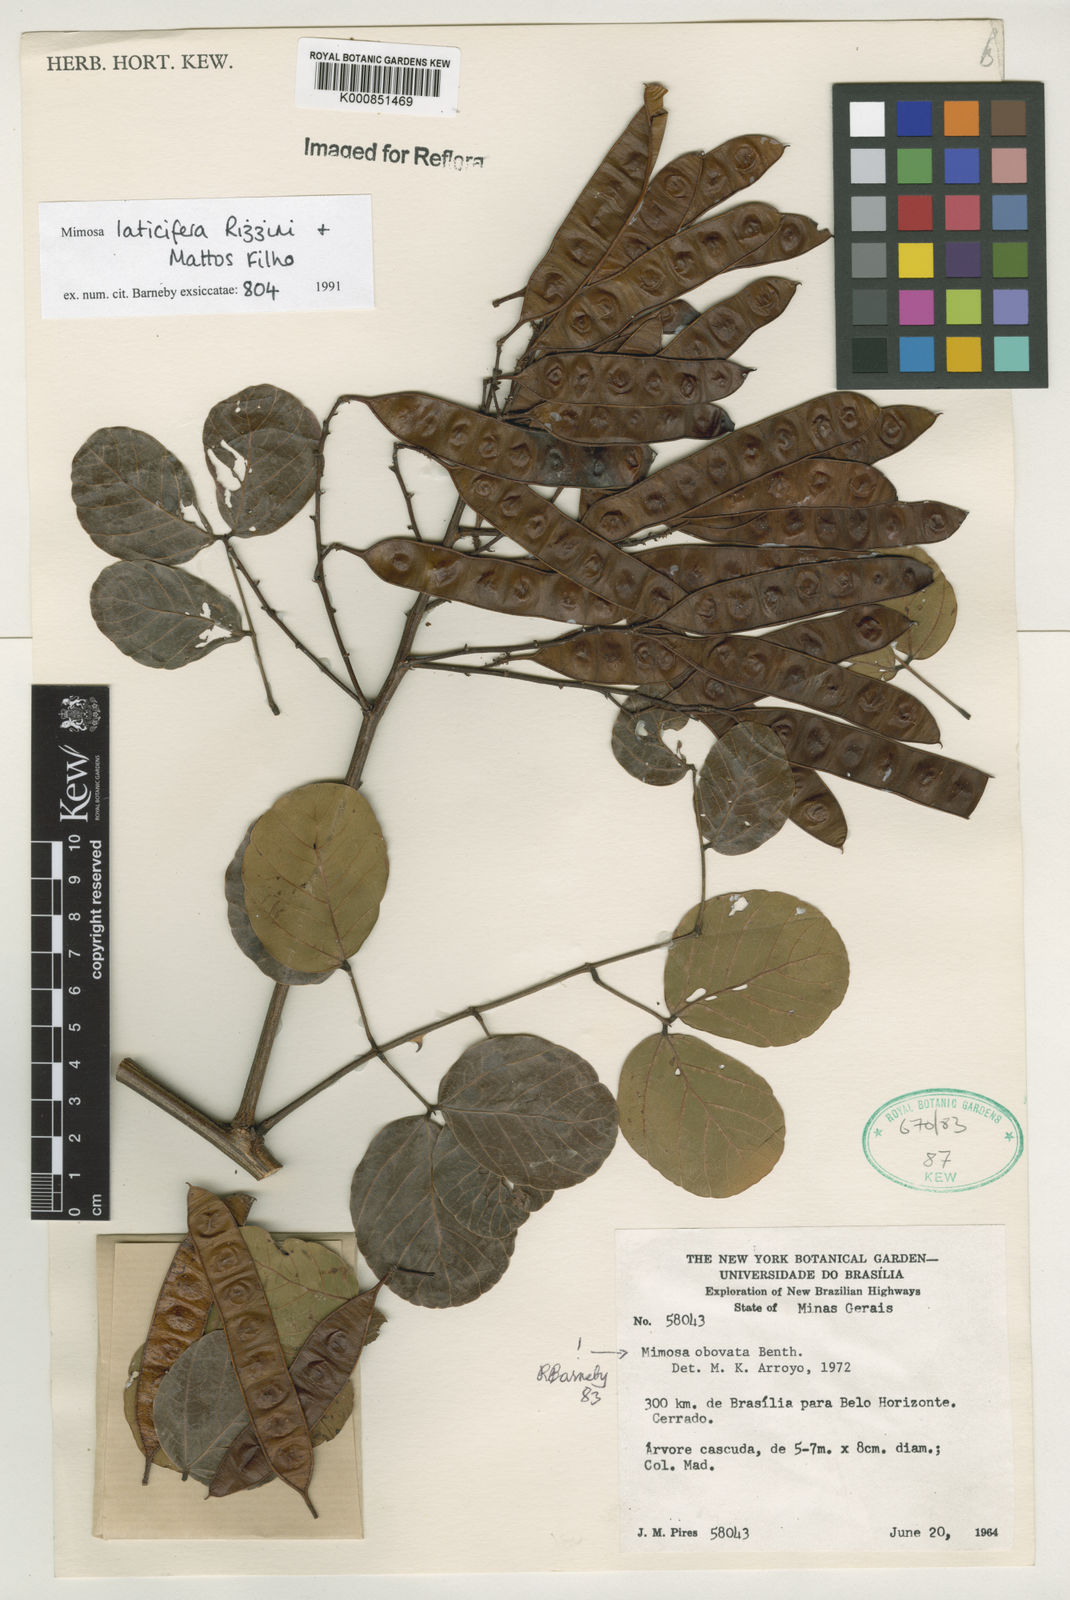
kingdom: Plantae
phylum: Tracheophyta
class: Magnoliopsida
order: Fabales
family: Fabaceae
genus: Mimosa
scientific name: Mimosa laticifera
